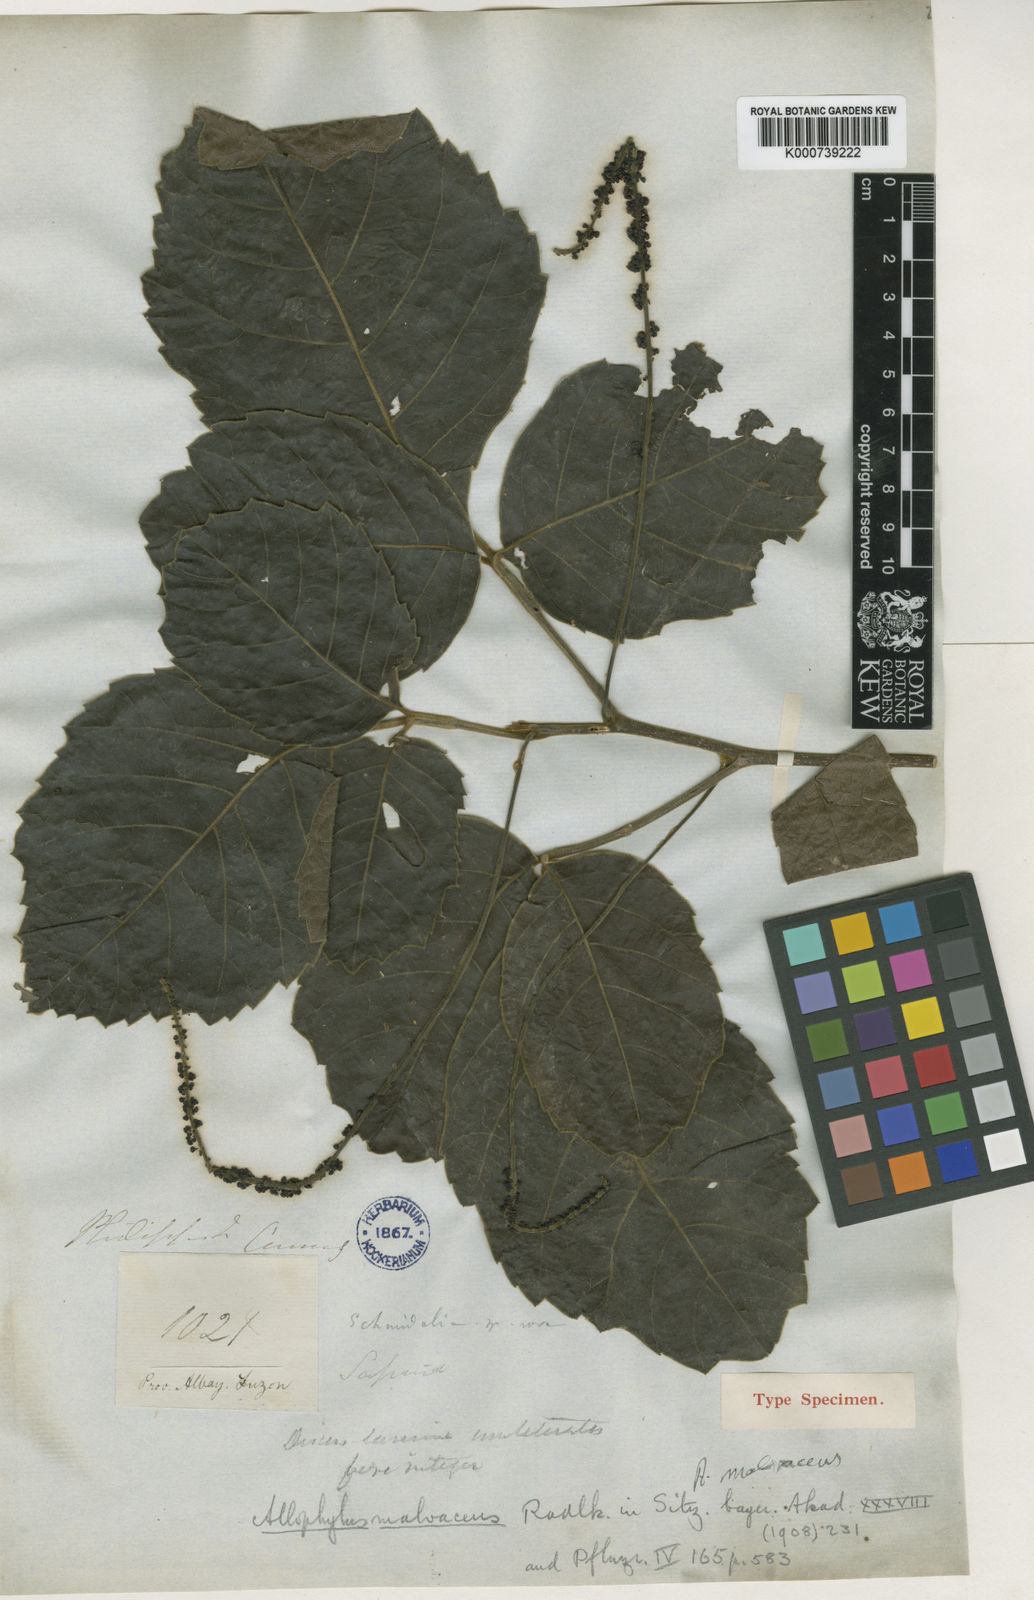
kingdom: Plantae
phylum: Tracheophyta
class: Magnoliopsida
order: Sapindales
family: Sapindaceae
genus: Allophylus
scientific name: Allophylus malvaceus
